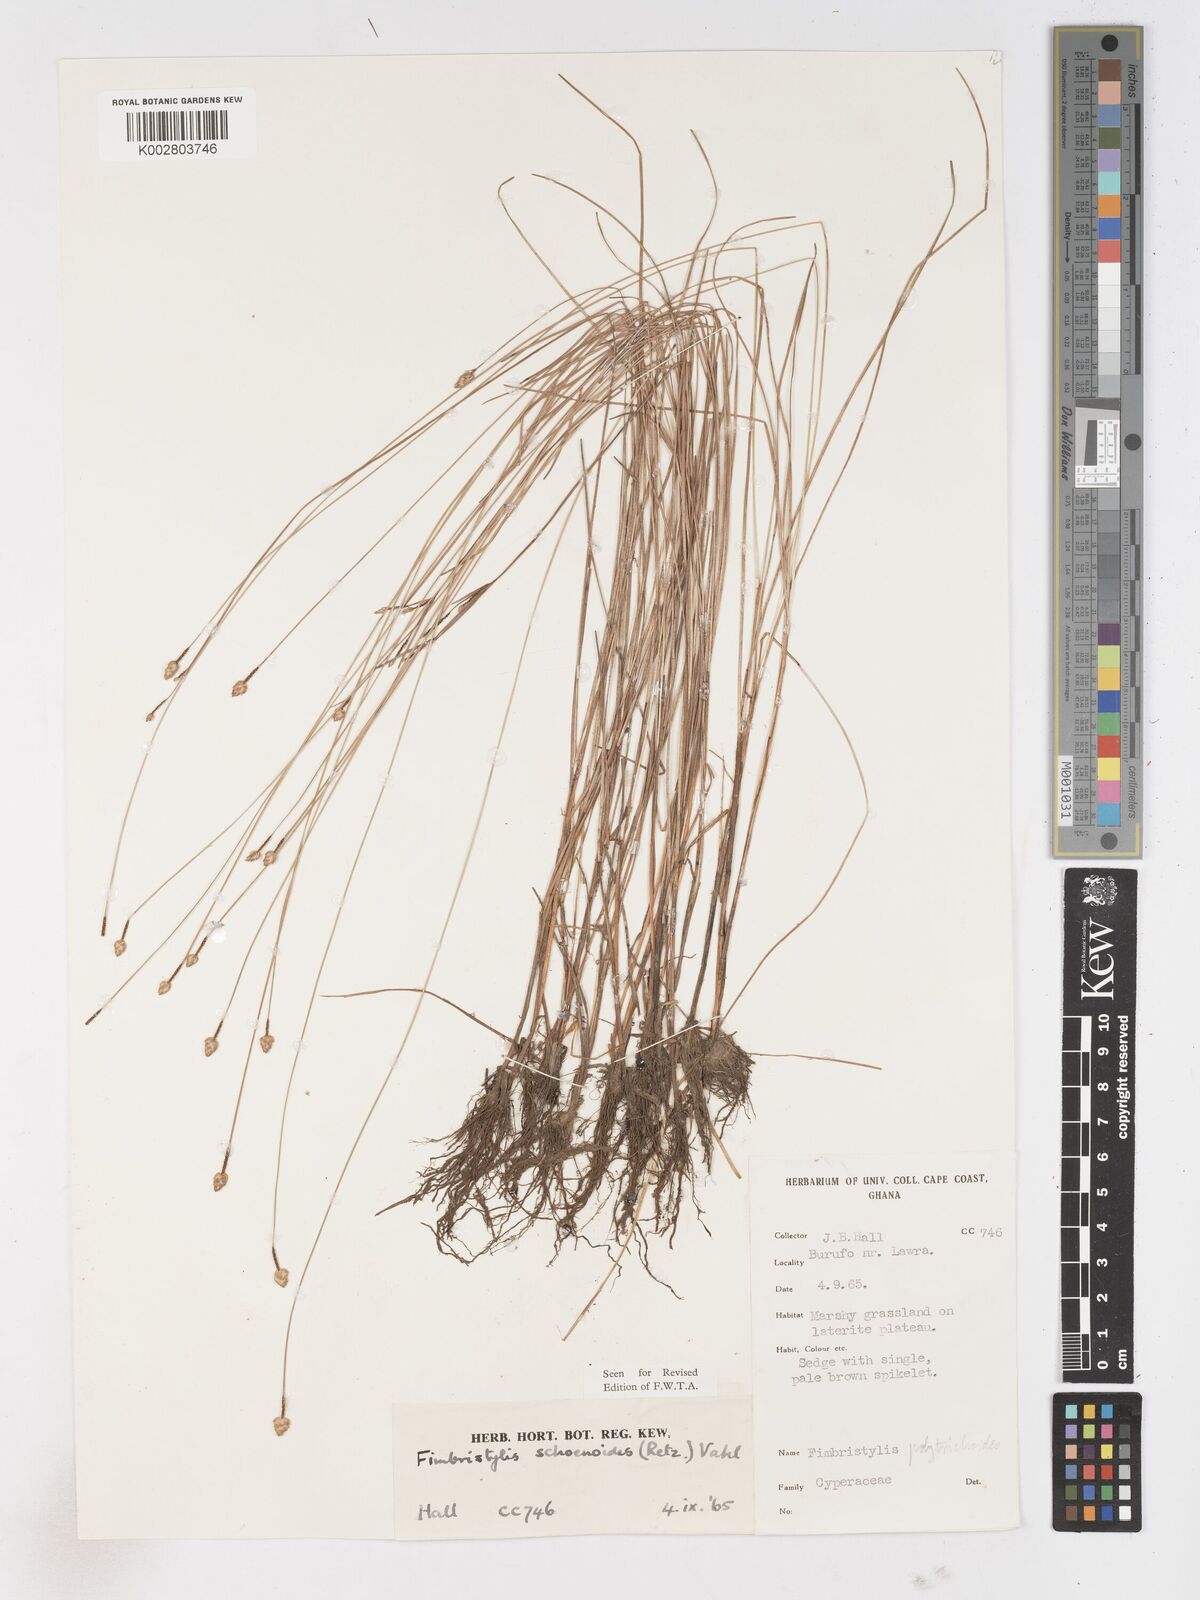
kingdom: Plantae
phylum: Tracheophyta
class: Liliopsida
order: Poales
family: Cyperaceae
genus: Fimbristylis
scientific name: Fimbristylis schoenoides
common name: Ditch fimbry
